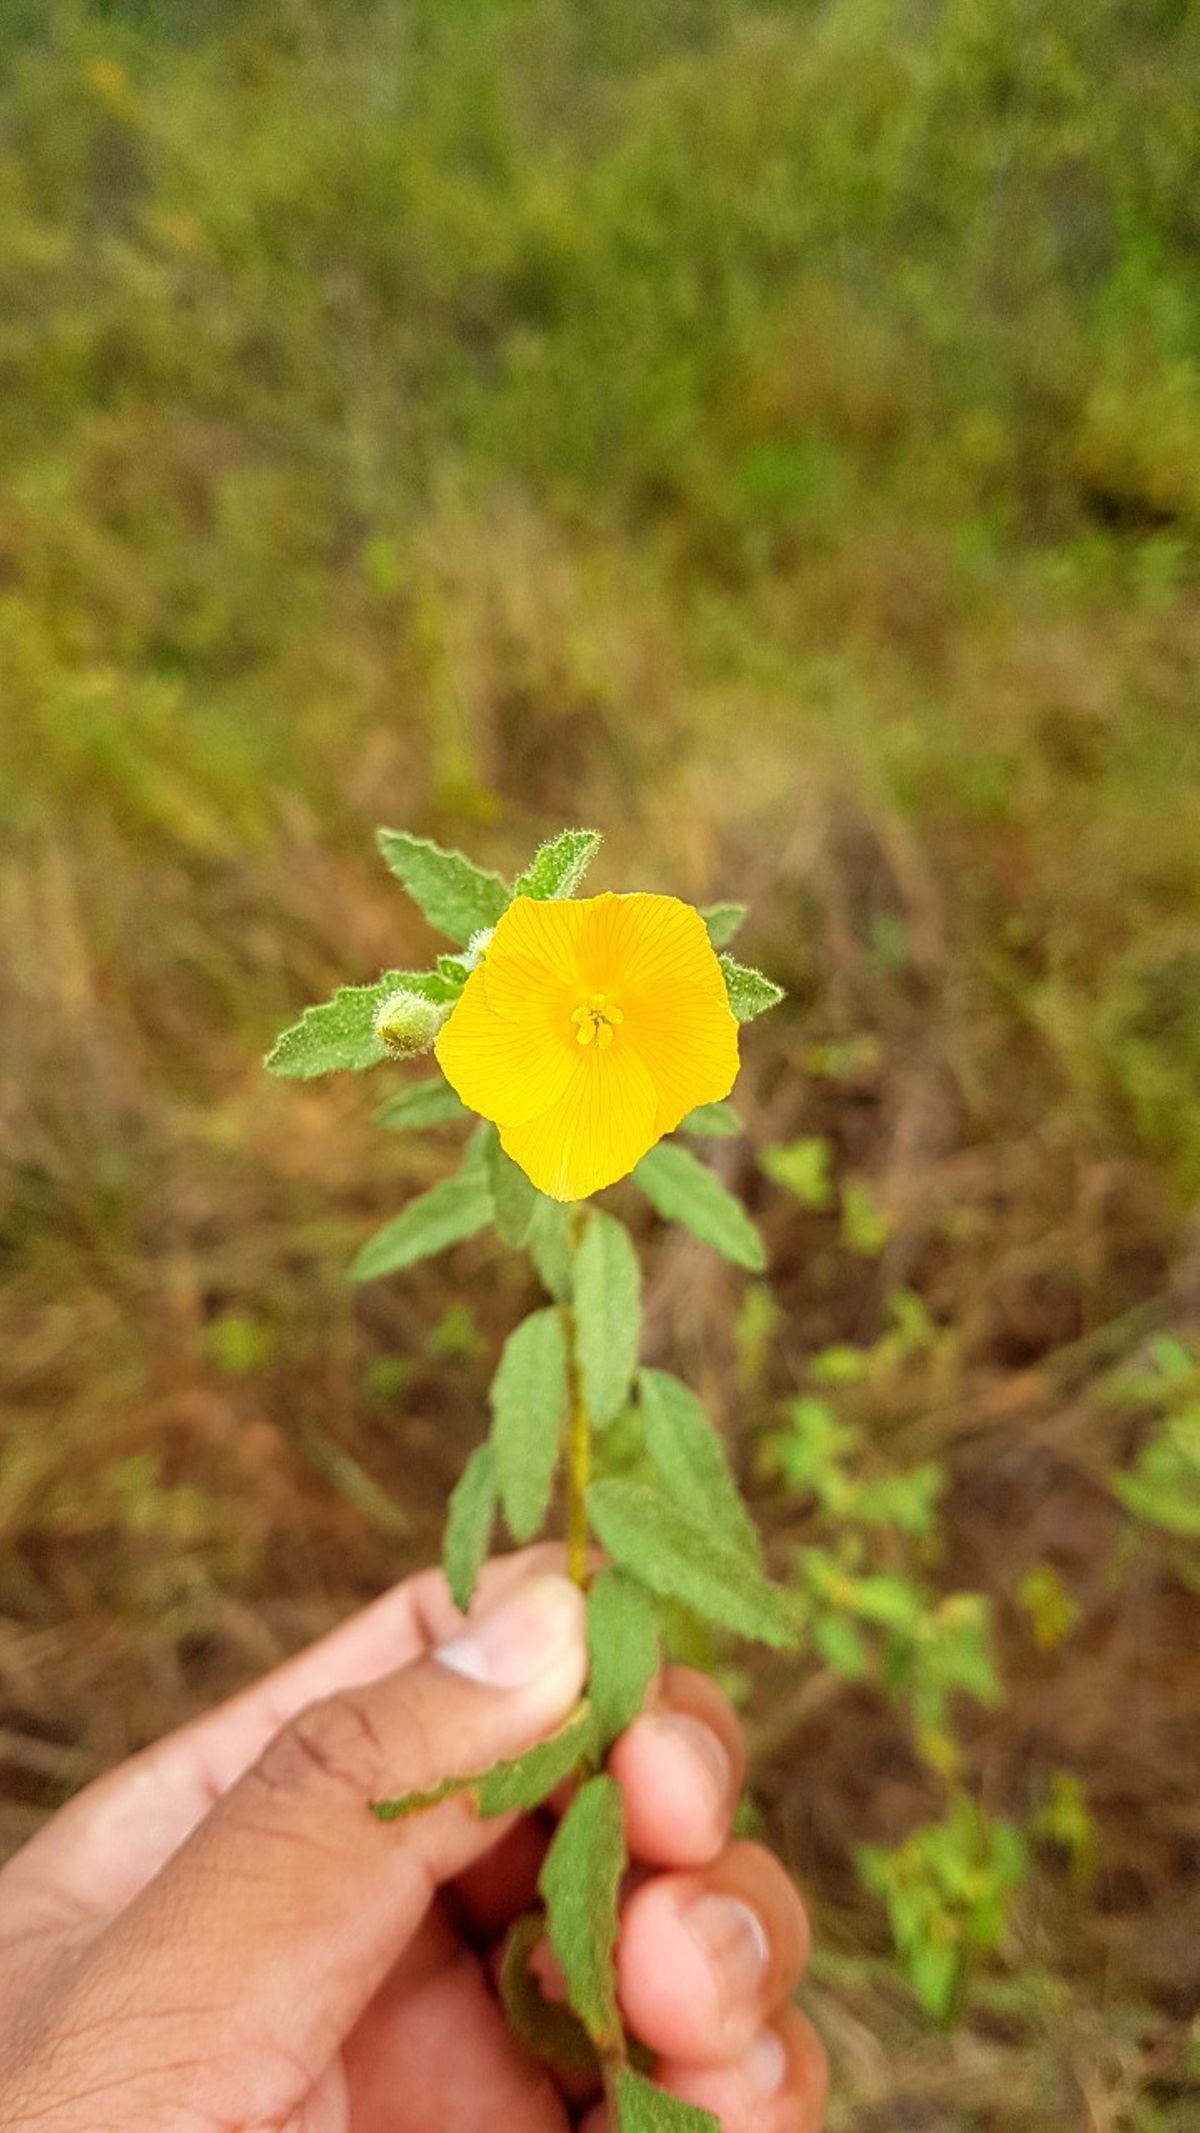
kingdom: Plantae
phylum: Tracheophyta
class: Magnoliopsida
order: Malpighiales
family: Turneraceae
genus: Piriqueta
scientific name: Piriqueta mesoamericana
